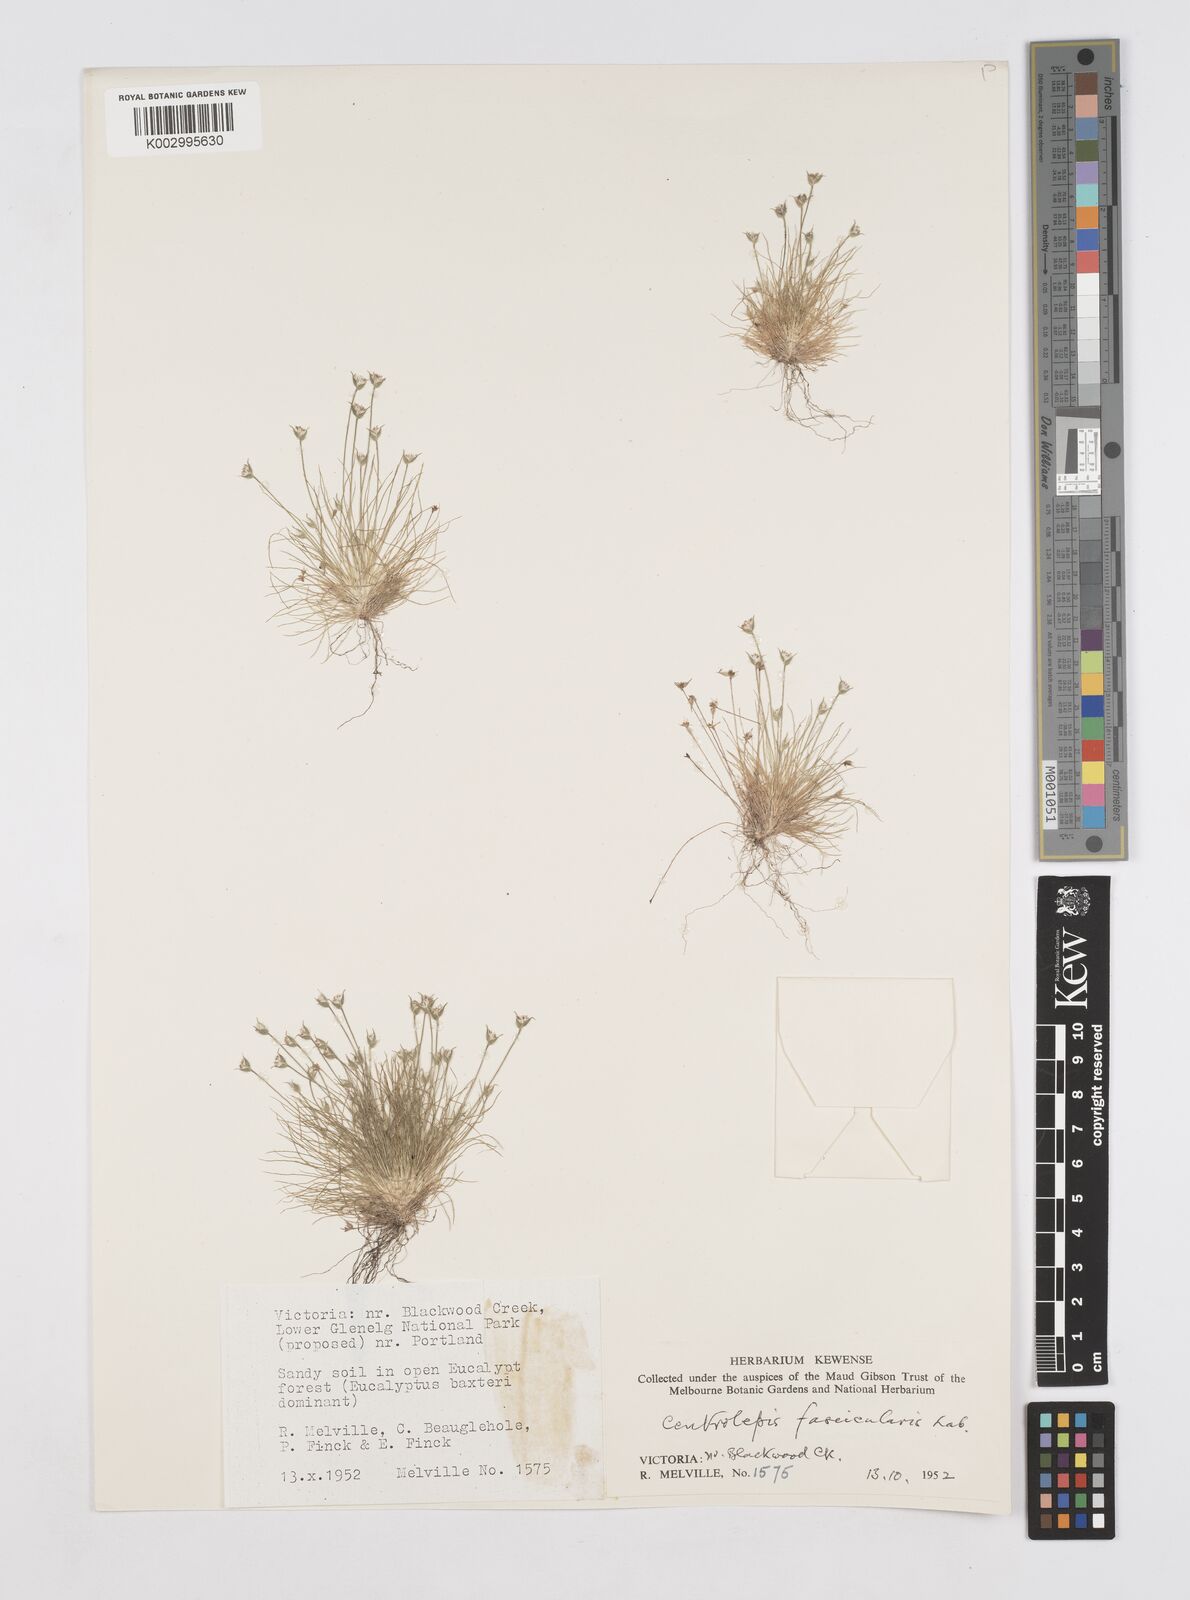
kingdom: Plantae
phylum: Tracheophyta
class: Liliopsida
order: Poales
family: Restionaceae
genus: Centrolepis
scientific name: Centrolepis fascicularis
